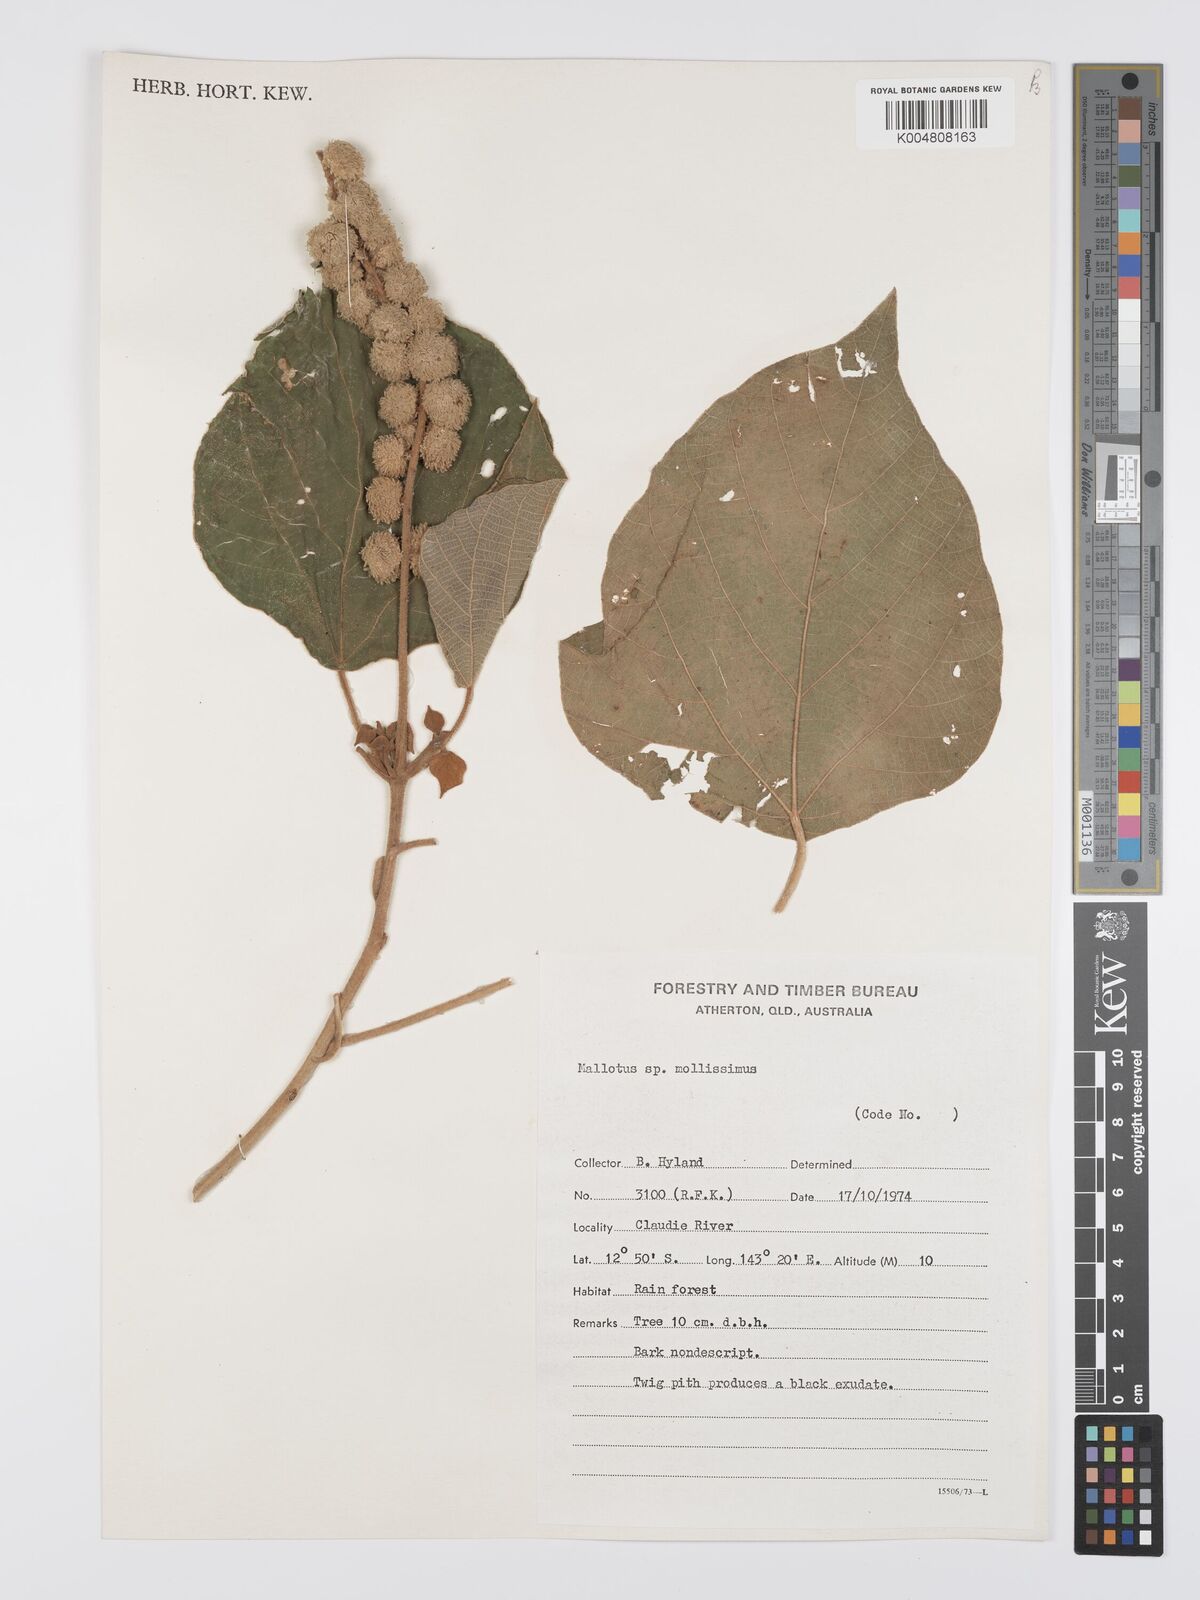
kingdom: Plantae
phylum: Tracheophyta
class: Magnoliopsida
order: Malpighiales
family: Euphorbiaceae
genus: Mallotus
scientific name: Mallotus mollissimus
